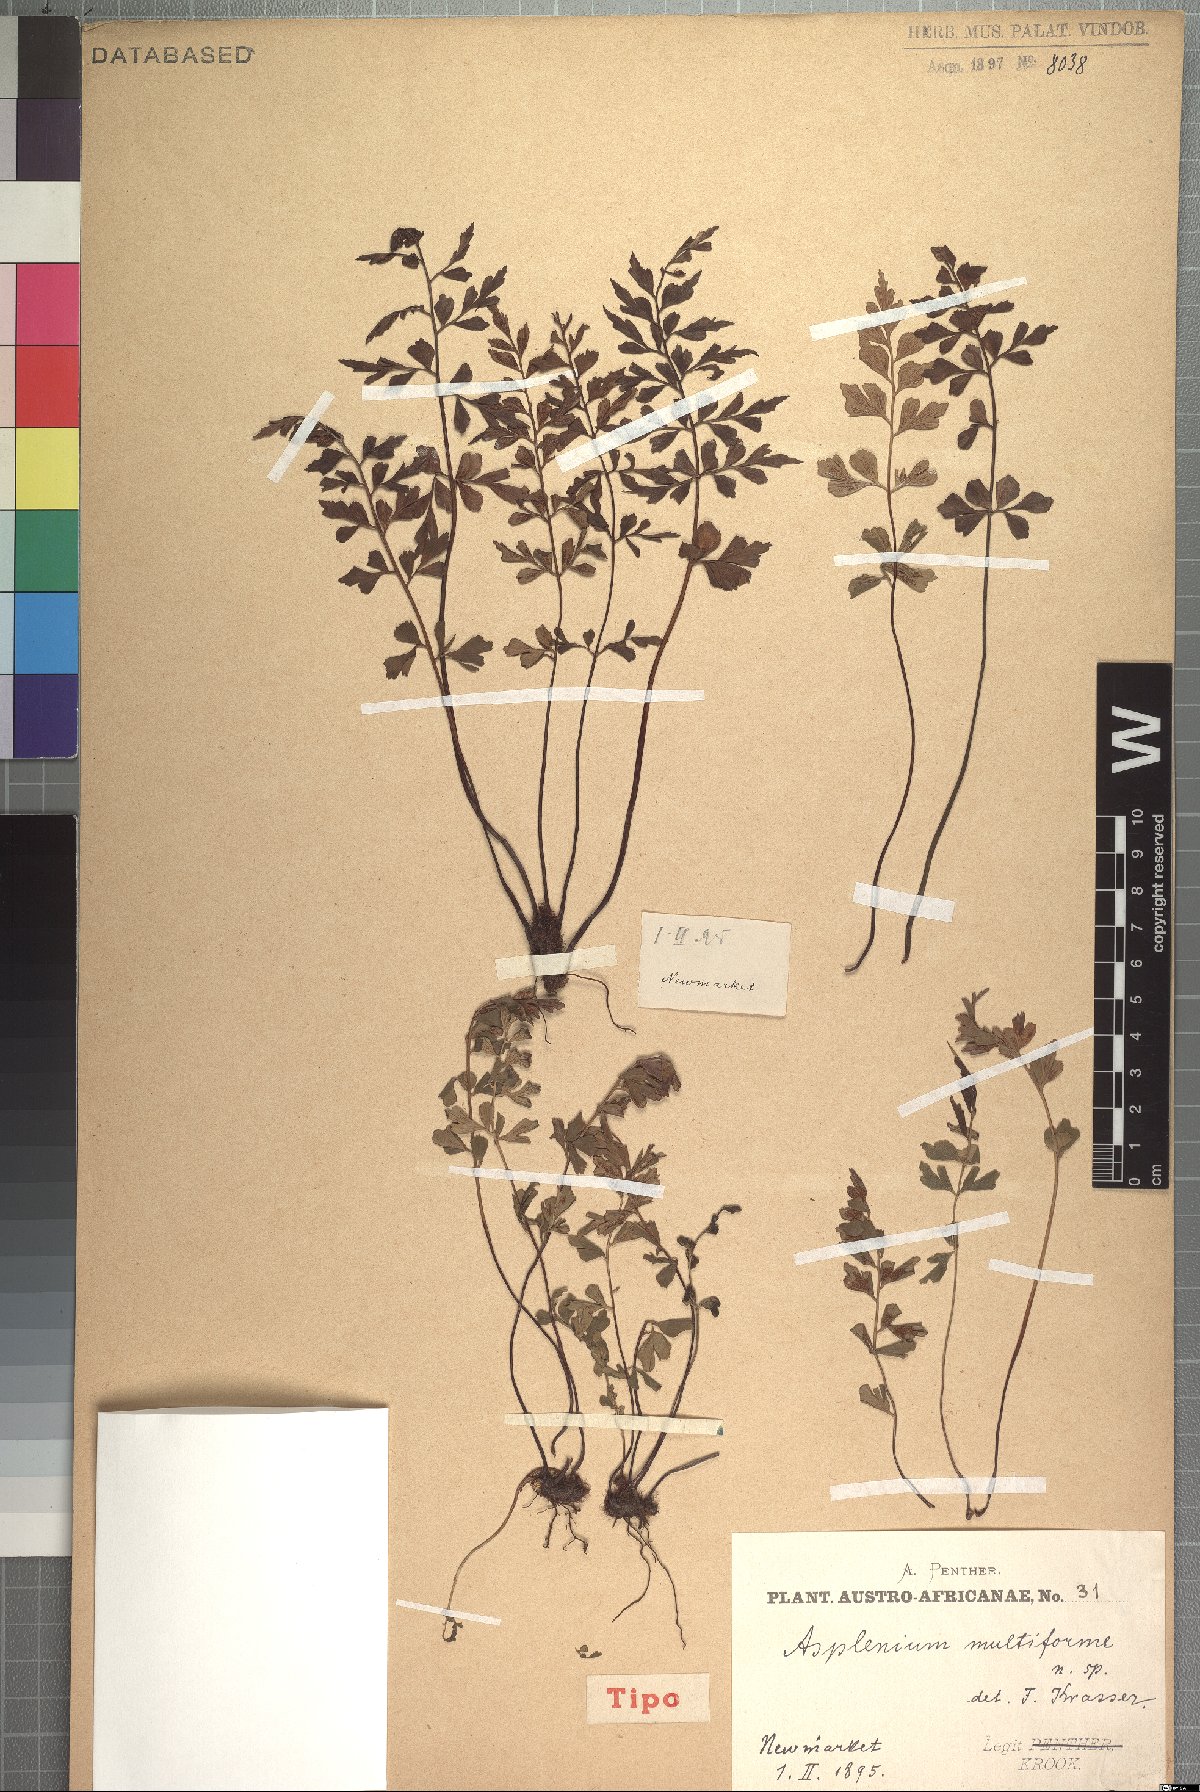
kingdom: Plantae
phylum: Tracheophyta
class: Polypodiopsida
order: Polypodiales
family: Aspleniaceae
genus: Asplenium
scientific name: Asplenium multiforme
